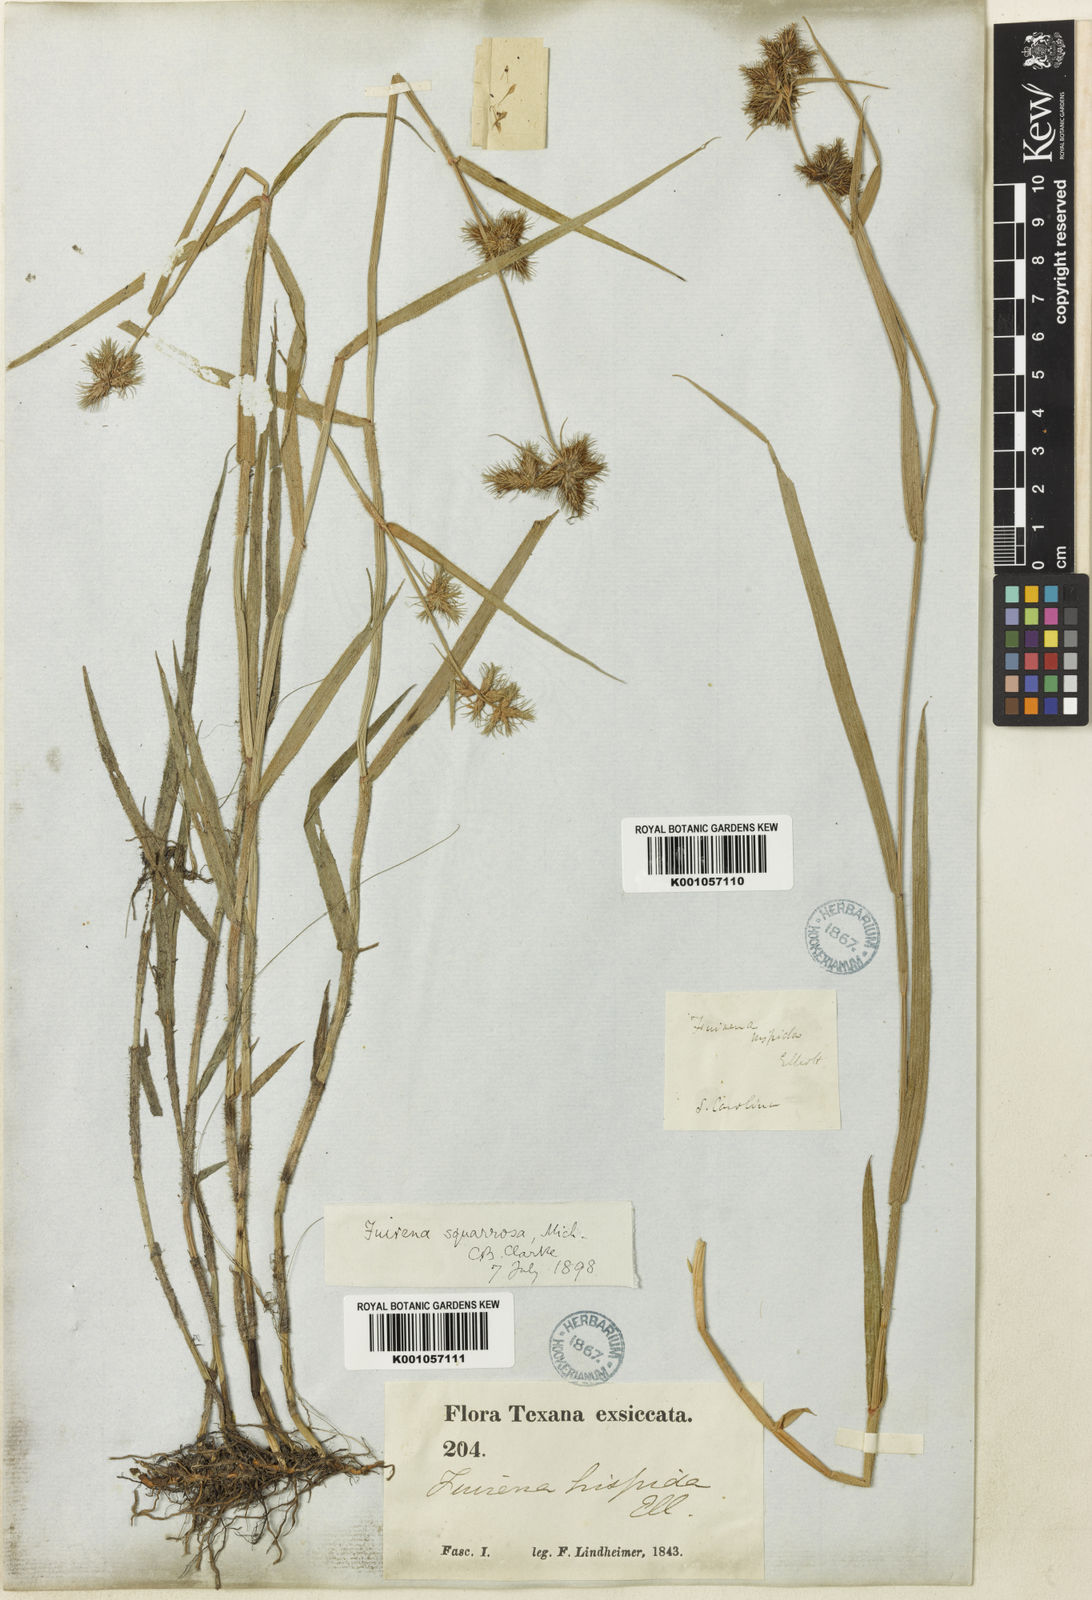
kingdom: Plantae
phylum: Tracheophyta
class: Liliopsida
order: Poales
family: Cyperaceae
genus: Fuirena
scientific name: Fuirena squarrosa
